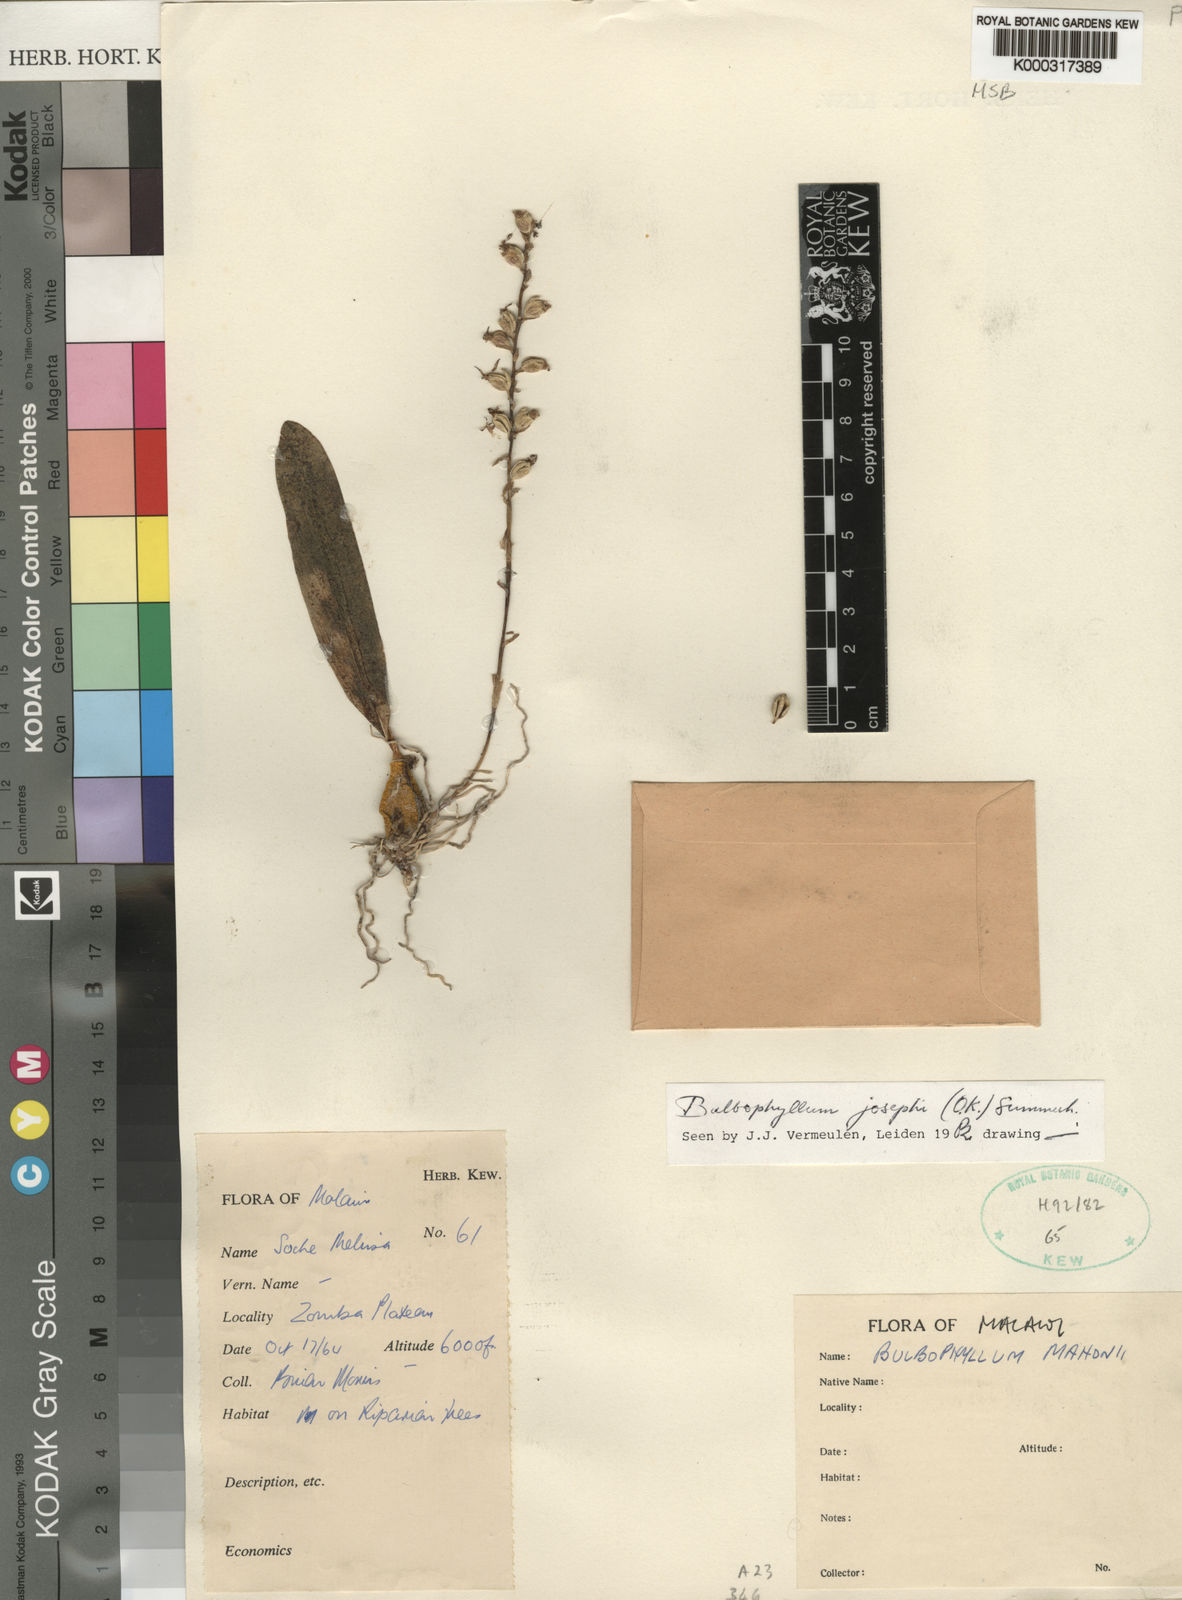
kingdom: Plantae
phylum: Tracheophyta
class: Liliopsida
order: Asparagales
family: Orchidaceae
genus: Bulbophyllum
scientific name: Bulbophyllum josephi
